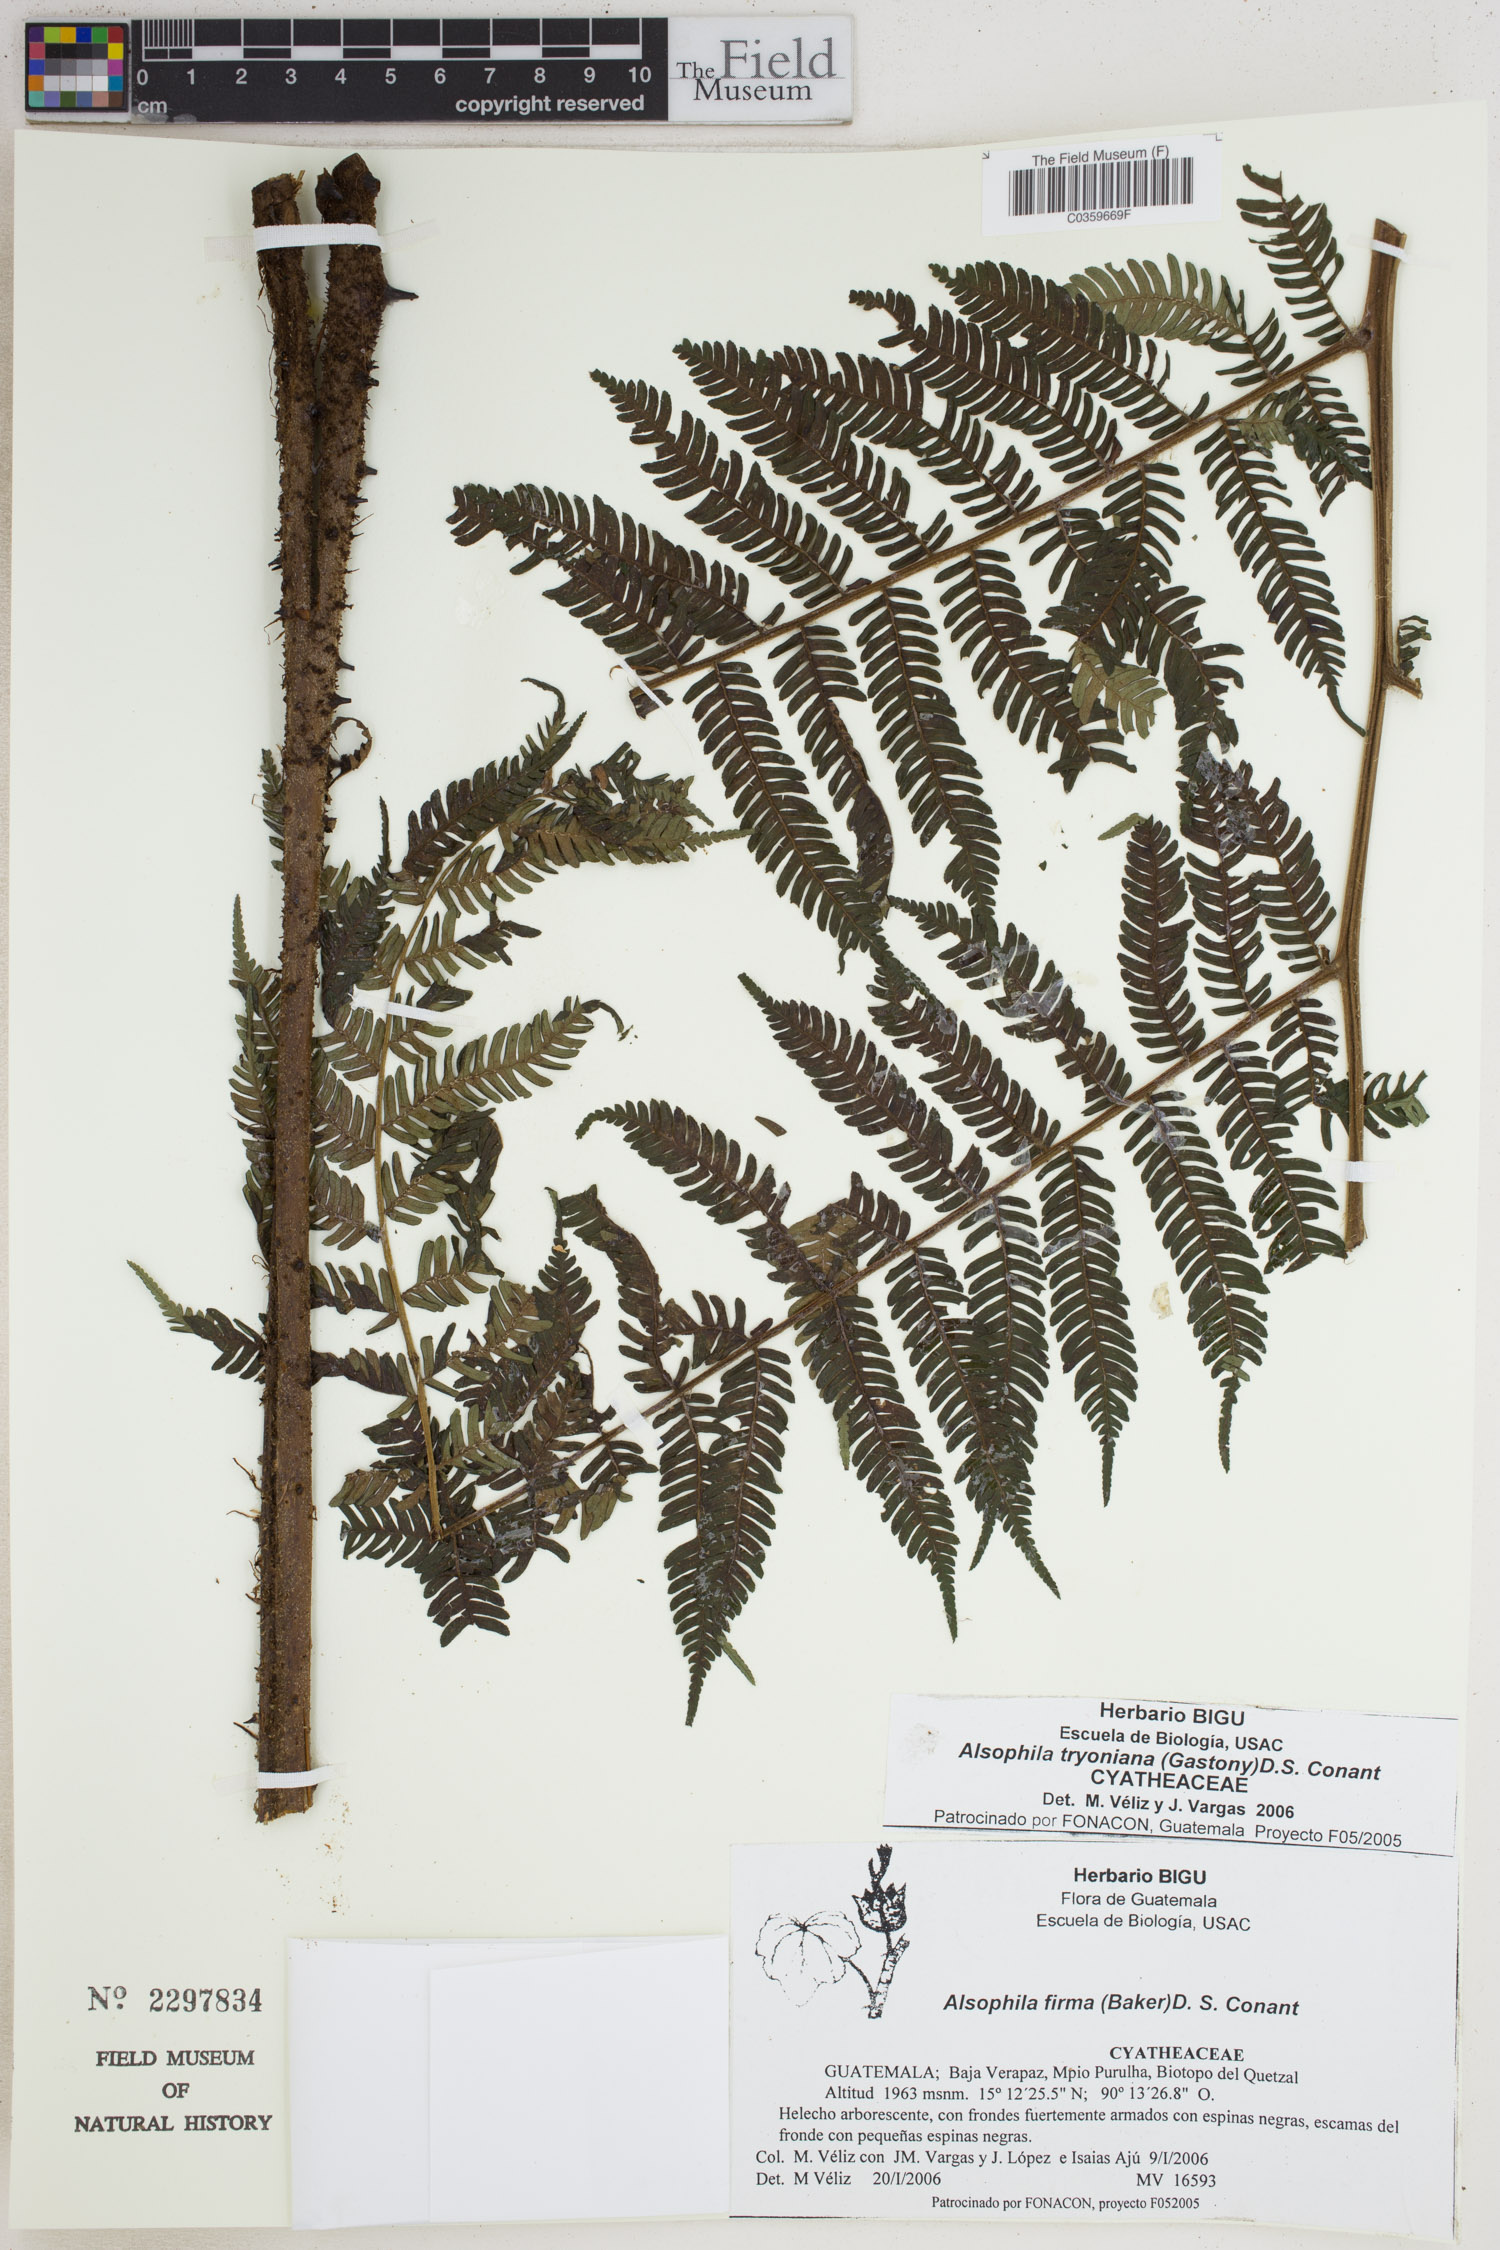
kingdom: Plantae
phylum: Tracheophyta
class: Polypodiopsida
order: Cyatheales
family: Cyatheaceae
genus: Alsophila
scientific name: Alsophila tryoniana
